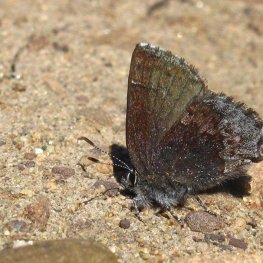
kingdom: Animalia
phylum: Arthropoda
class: Insecta
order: Lepidoptera
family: Lycaenidae
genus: Callophrys
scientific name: Callophrys polios
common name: Hoary Elfin
